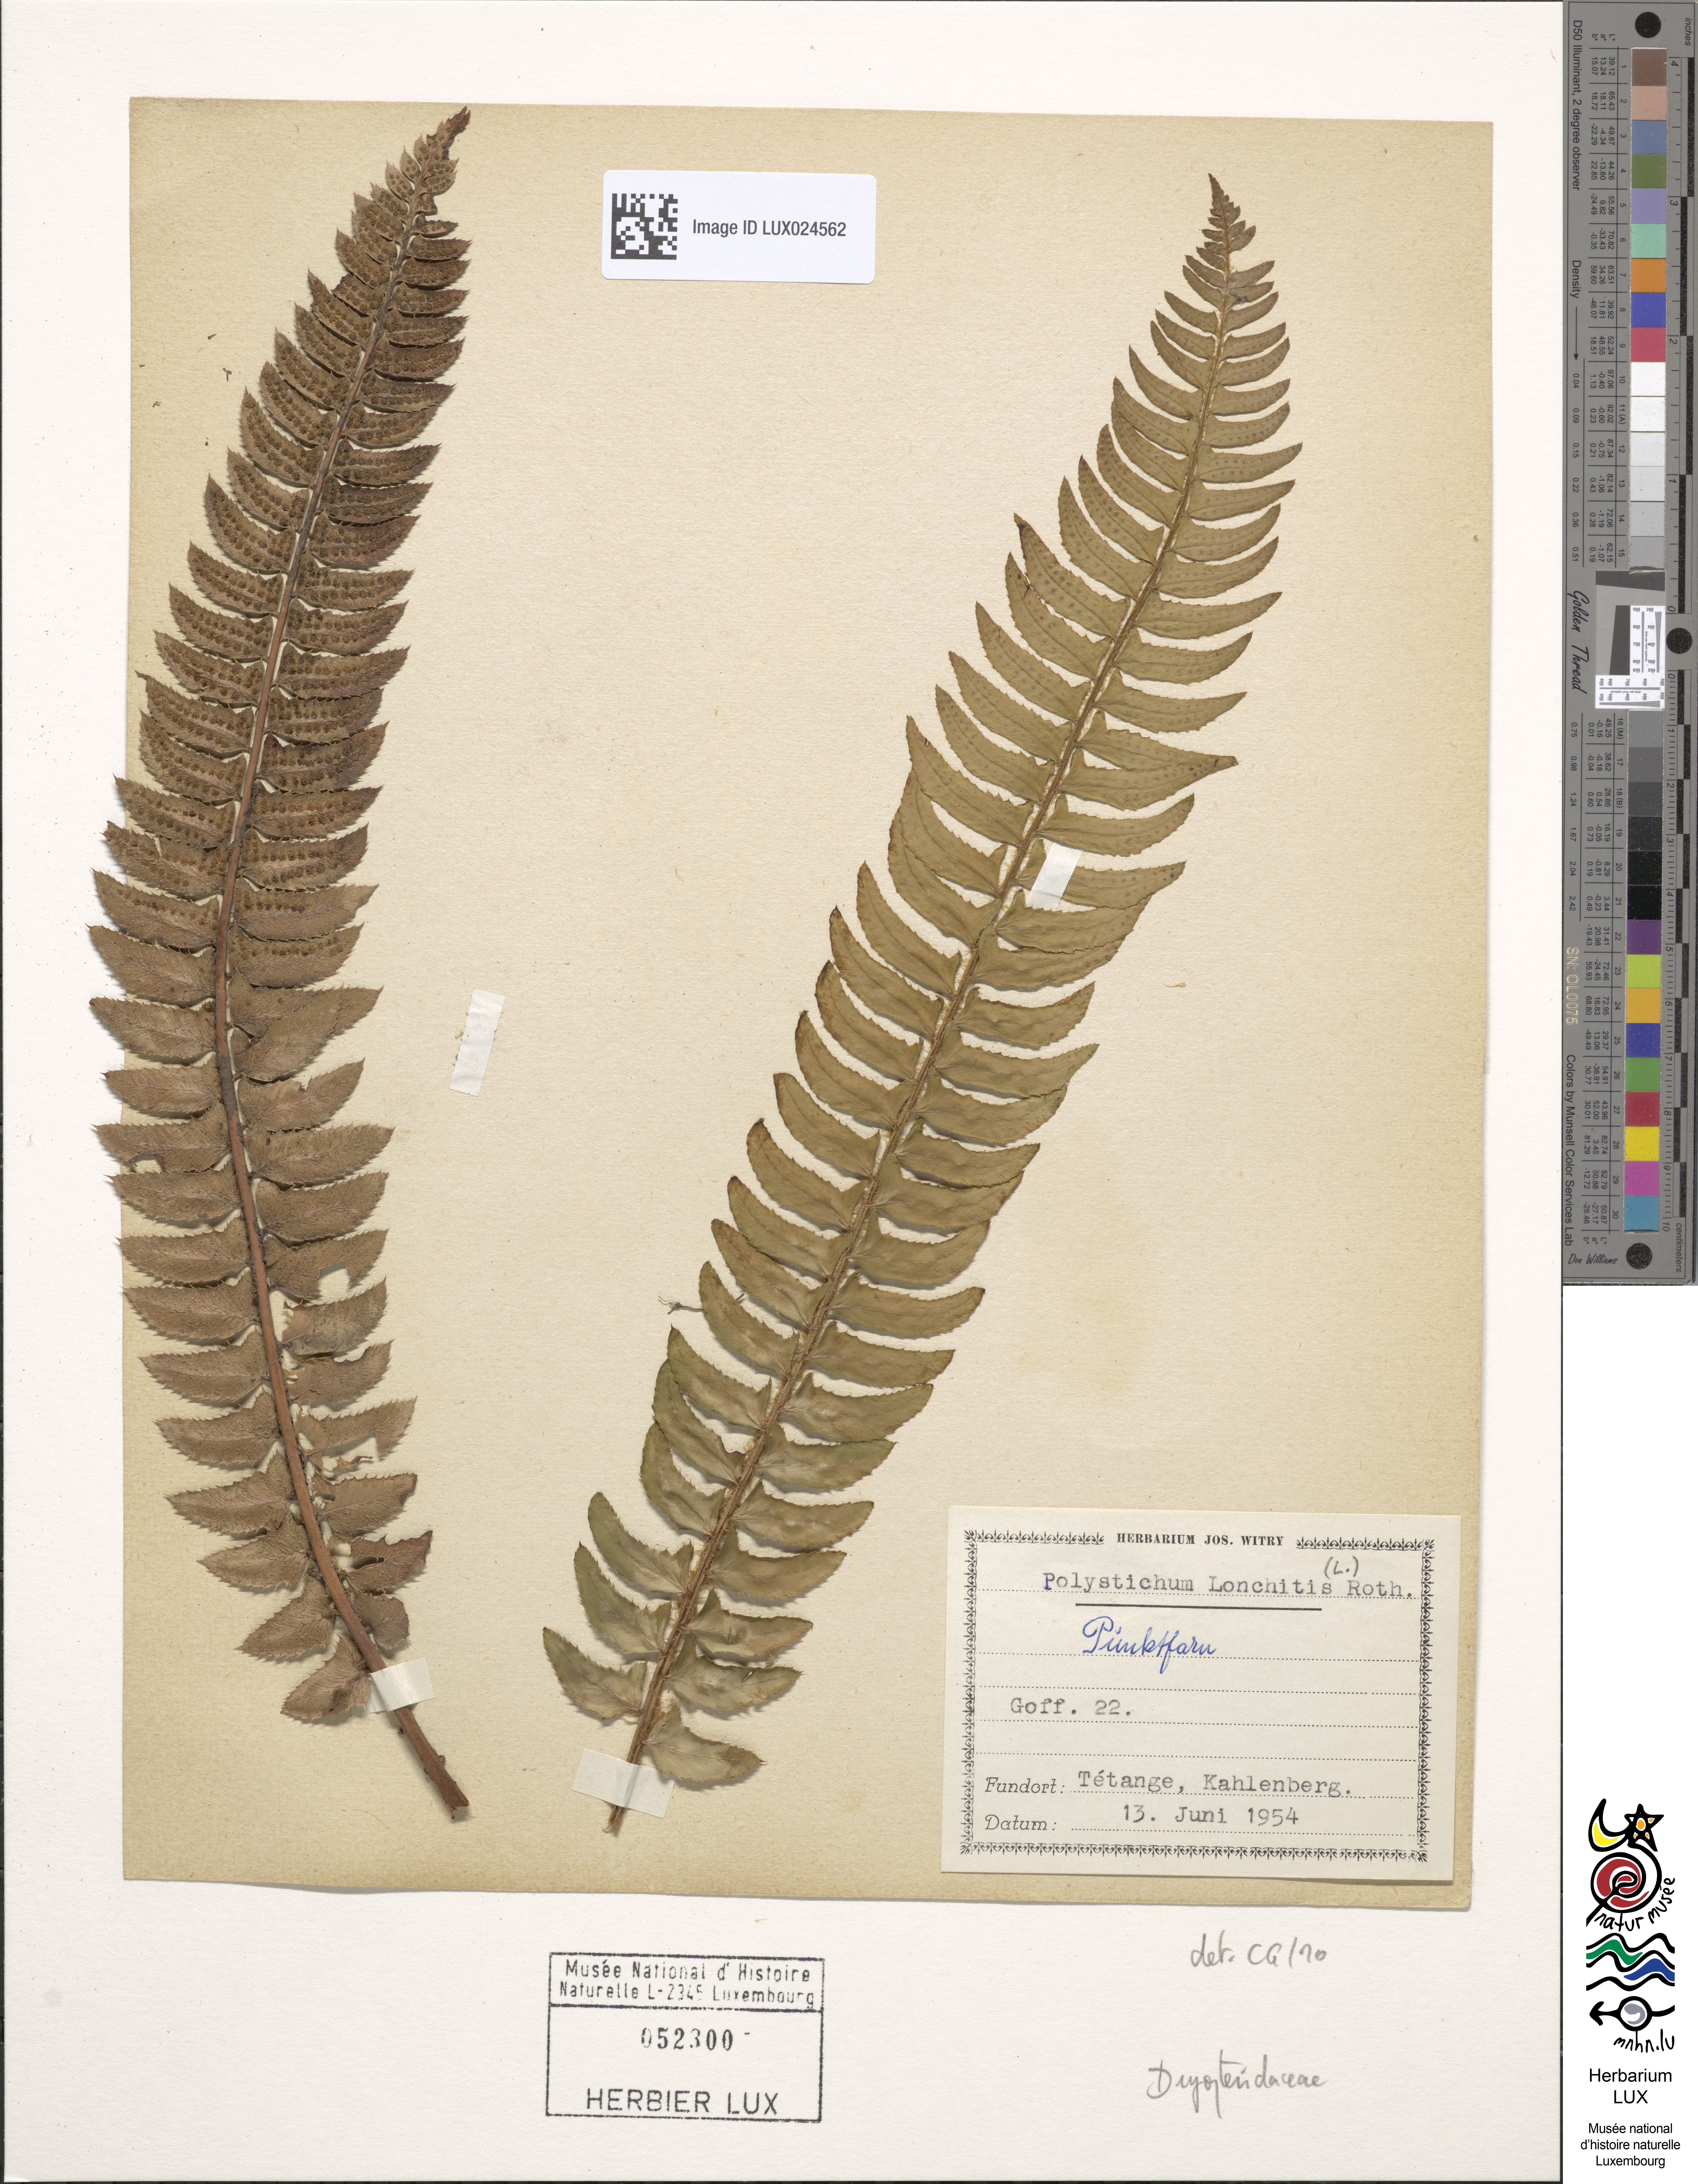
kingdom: Plantae
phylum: Tracheophyta
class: Polypodiopsida
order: Polypodiales
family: Dryopteridaceae
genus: Polystichum
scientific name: Polystichum lonchitis
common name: Holly fern
